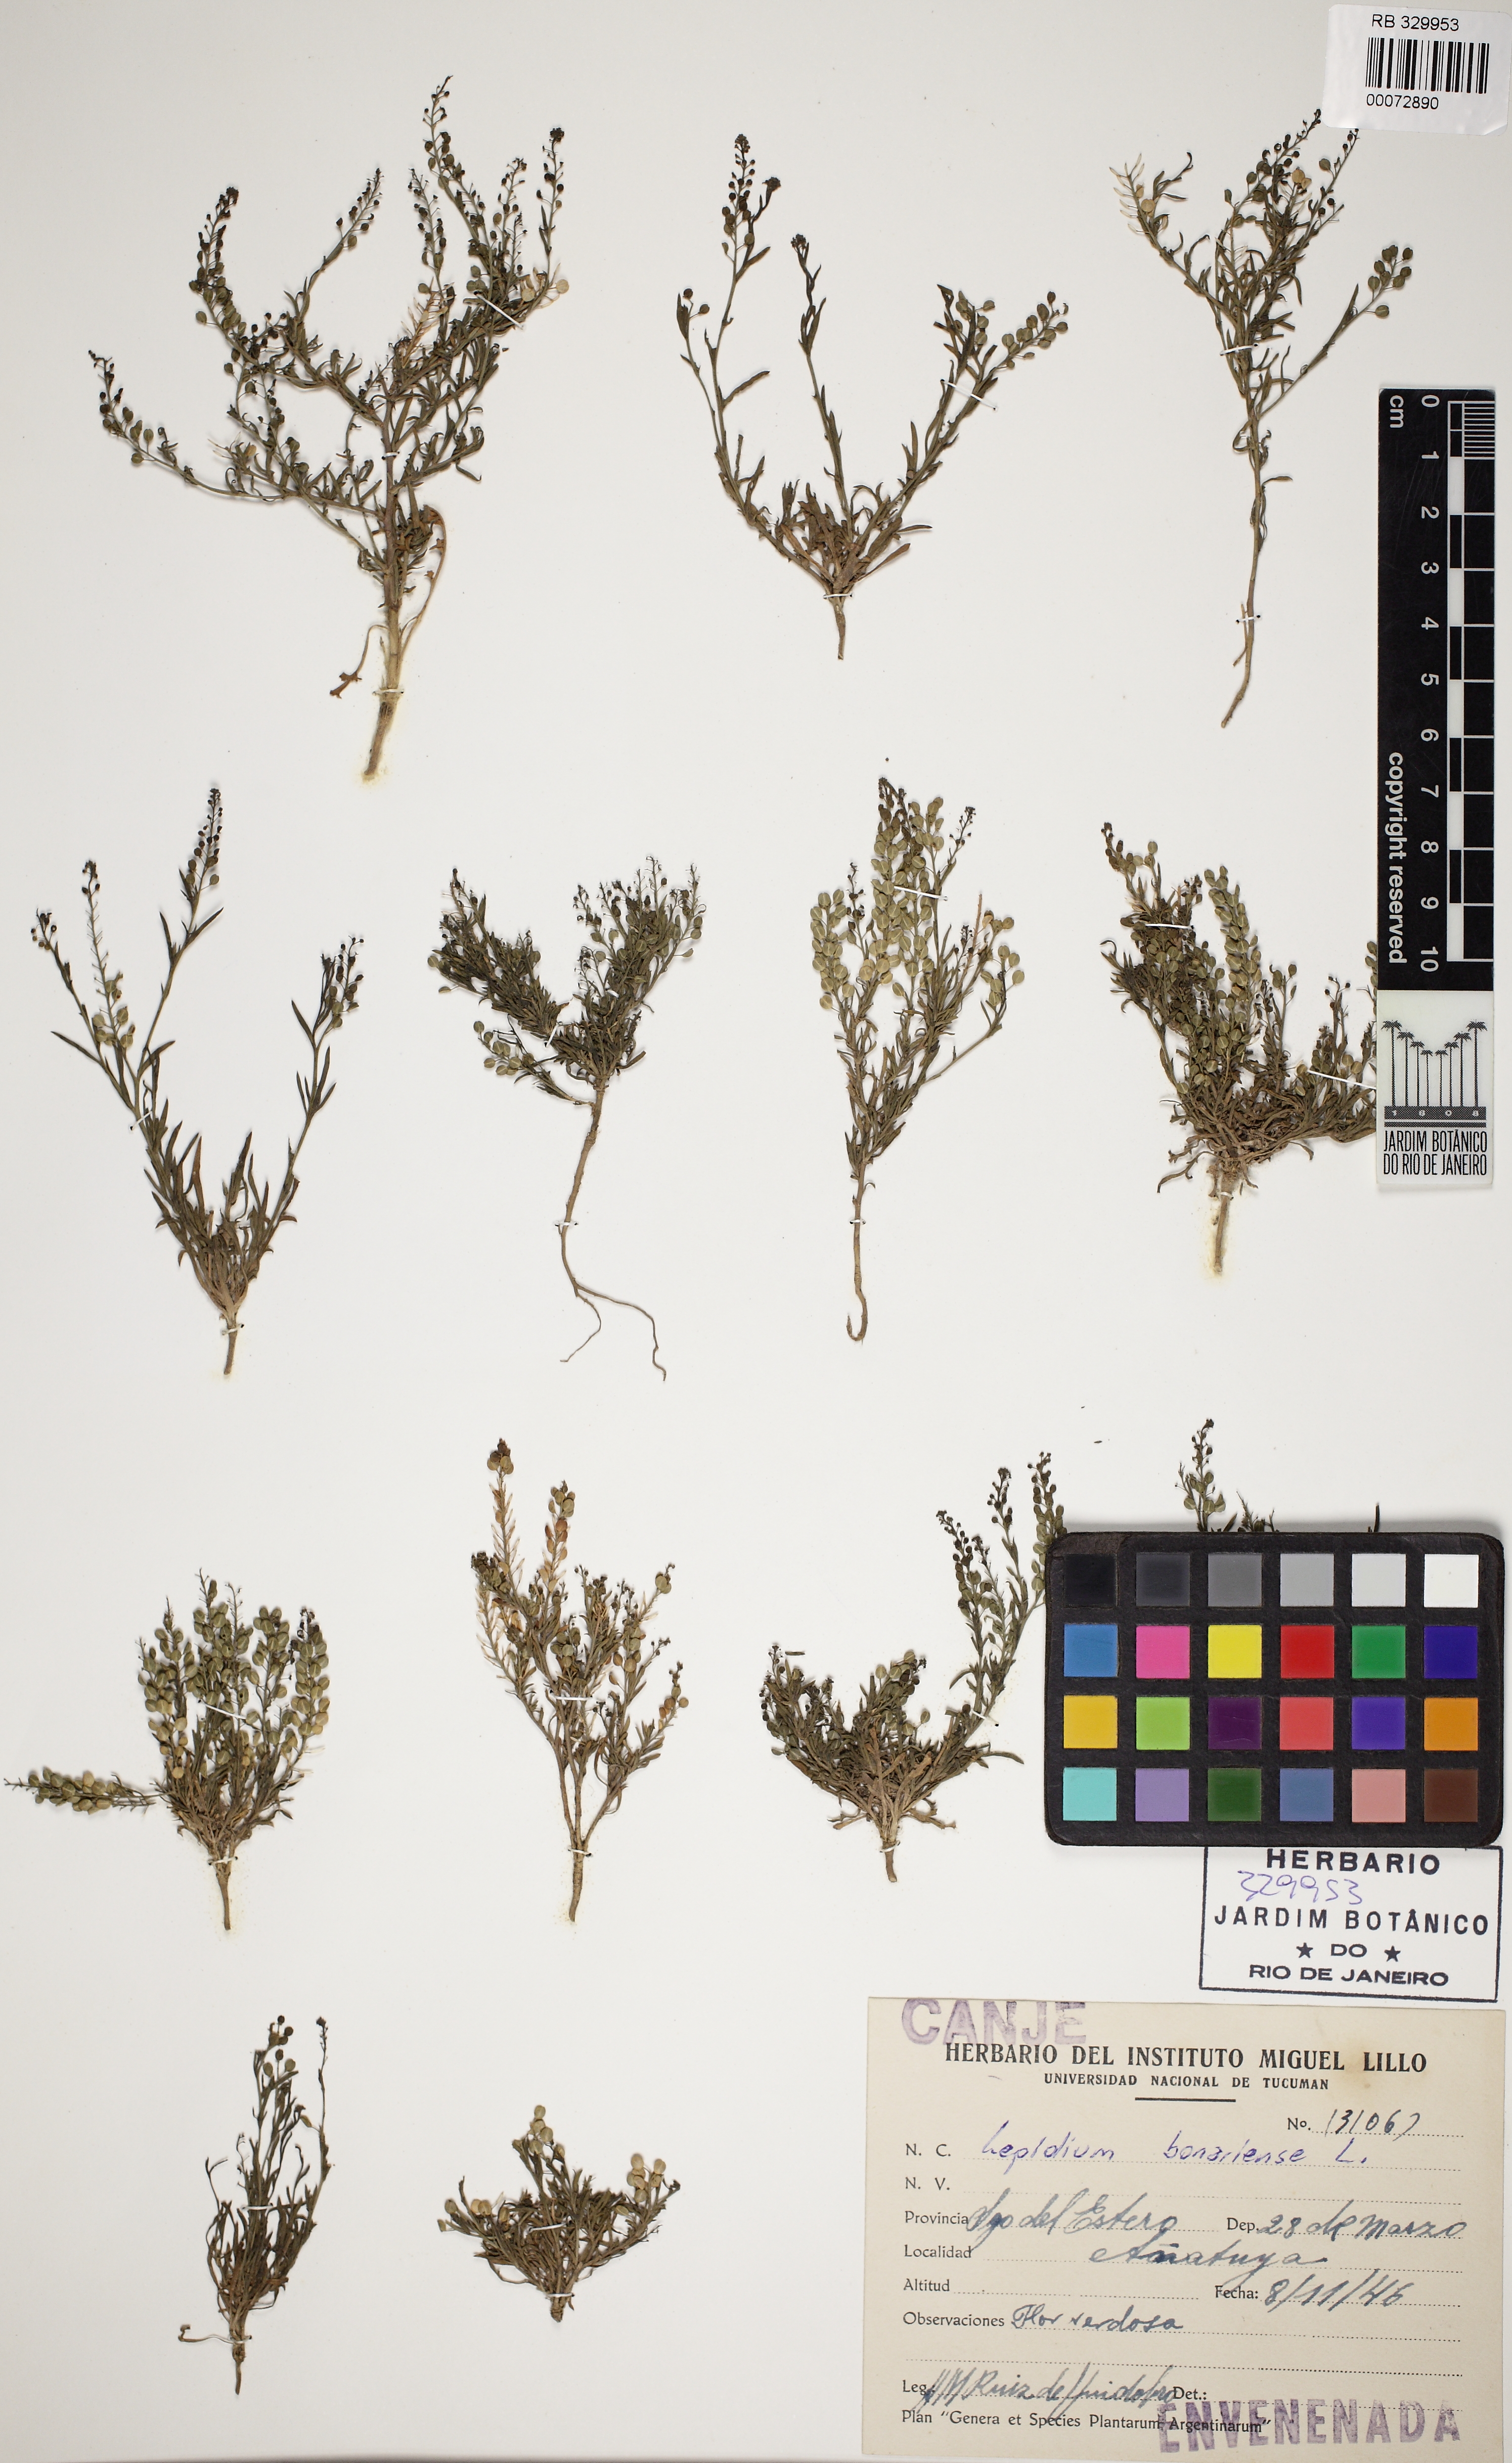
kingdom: Plantae
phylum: Tracheophyta
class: Magnoliopsida
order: Brassicales
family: Brassicaceae
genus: Lepidium
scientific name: Lepidium bonariense
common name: Argentine pepperwort
